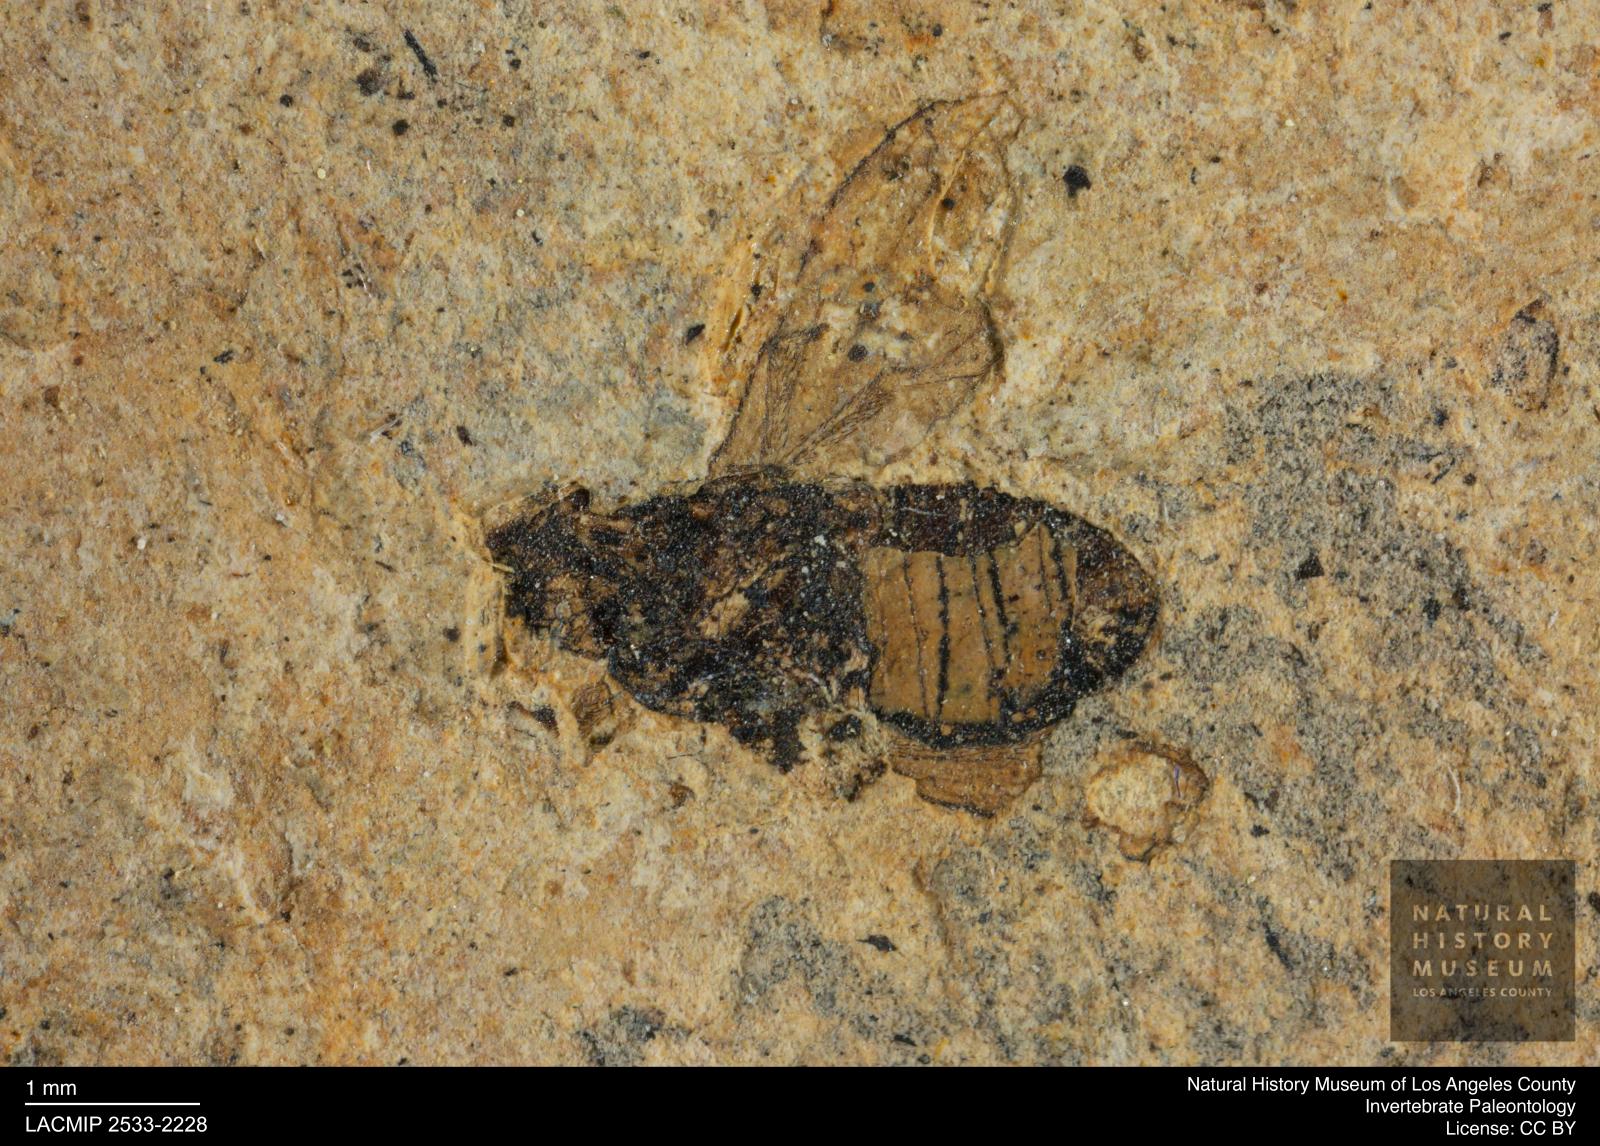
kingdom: Animalia
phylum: Arthropoda
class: Insecta
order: Diptera
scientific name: Diptera
